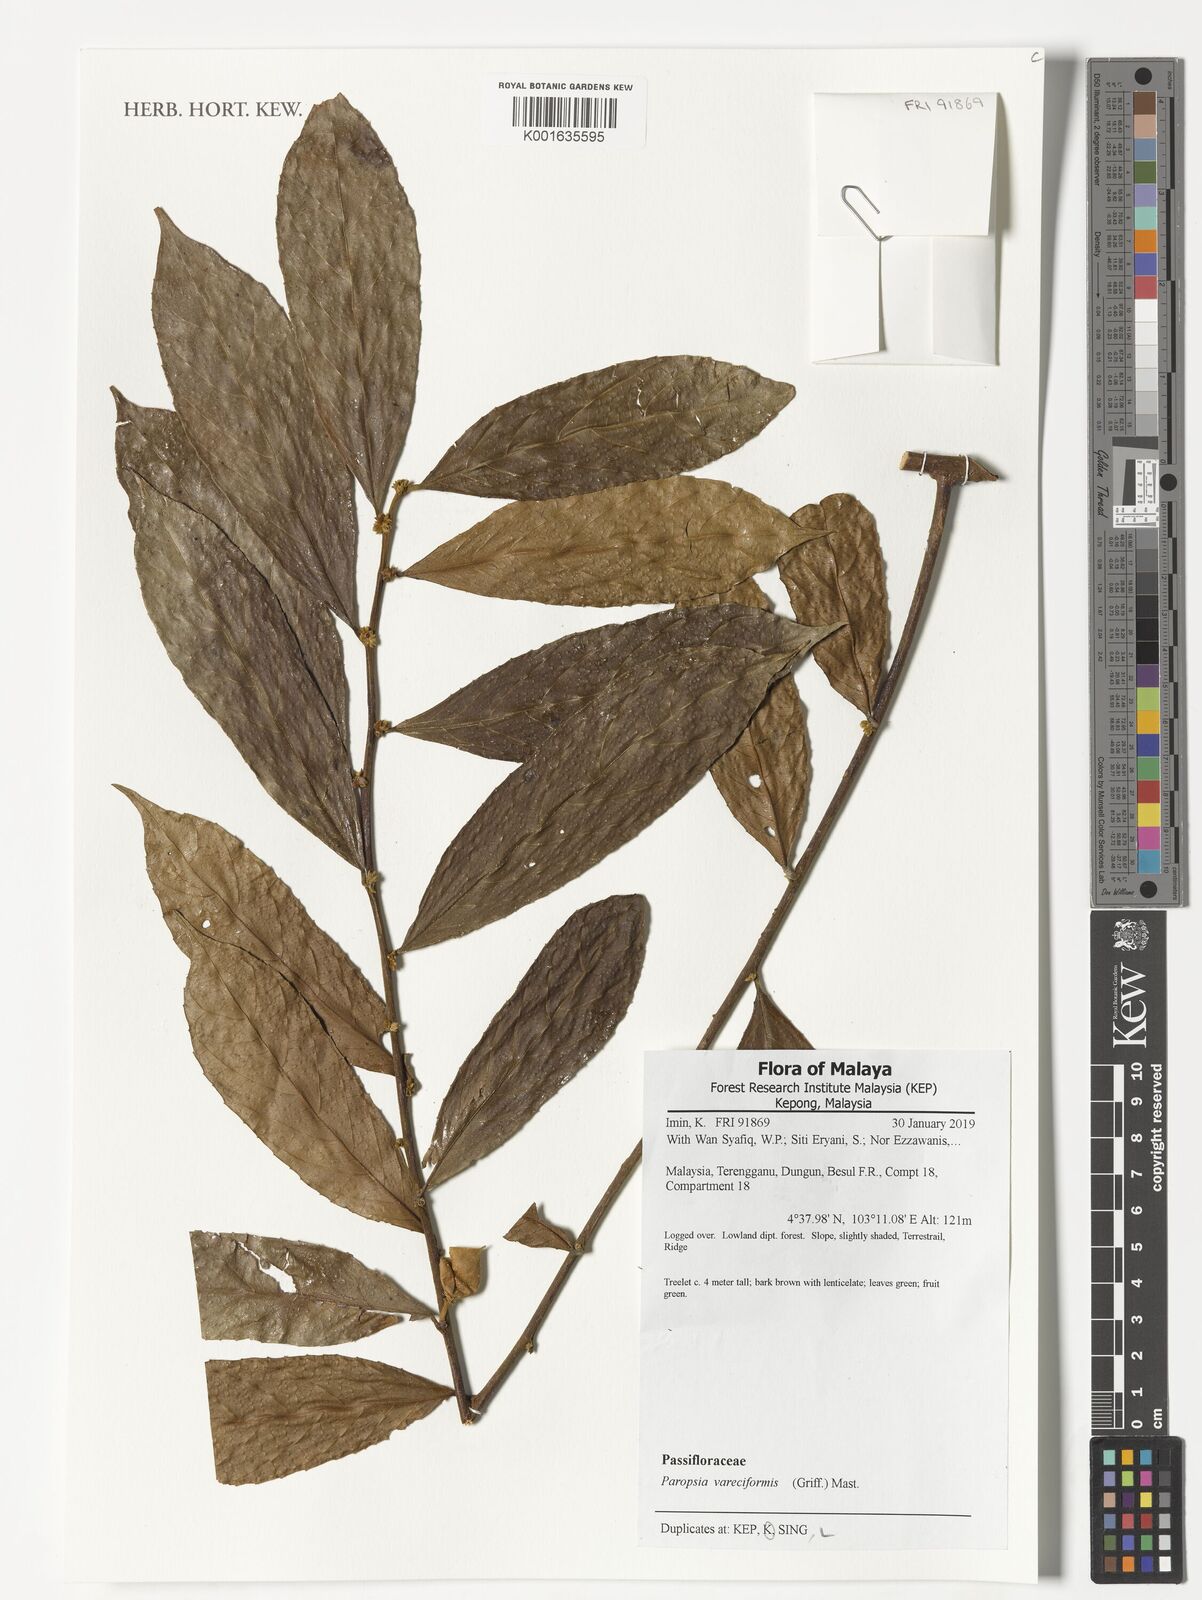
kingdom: Plantae
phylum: Tracheophyta
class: Magnoliopsida
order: Malpighiales
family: Passifloraceae
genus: Paropsia
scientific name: Paropsia vareciformis
